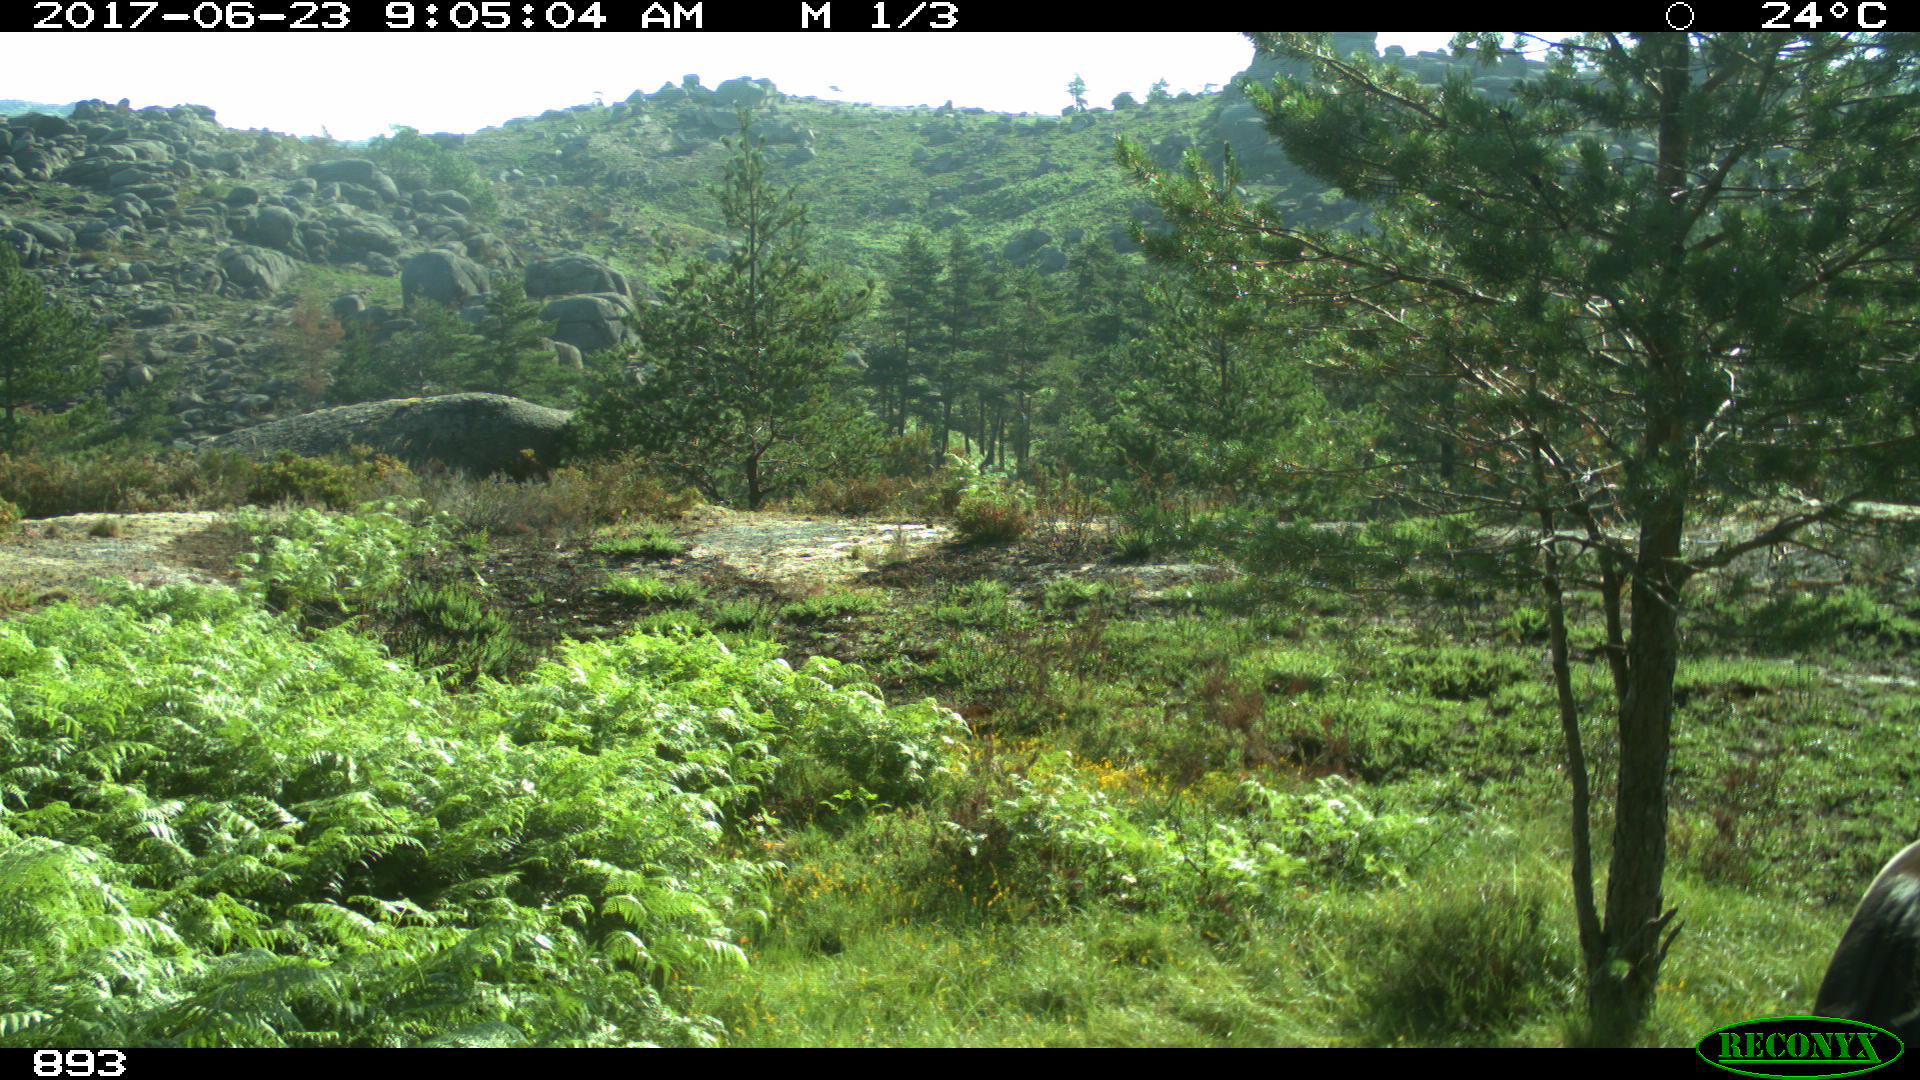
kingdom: Animalia
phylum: Chordata
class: Mammalia
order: Perissodactyla
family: Equidae
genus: Equus
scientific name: Equus caballus
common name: Horse
